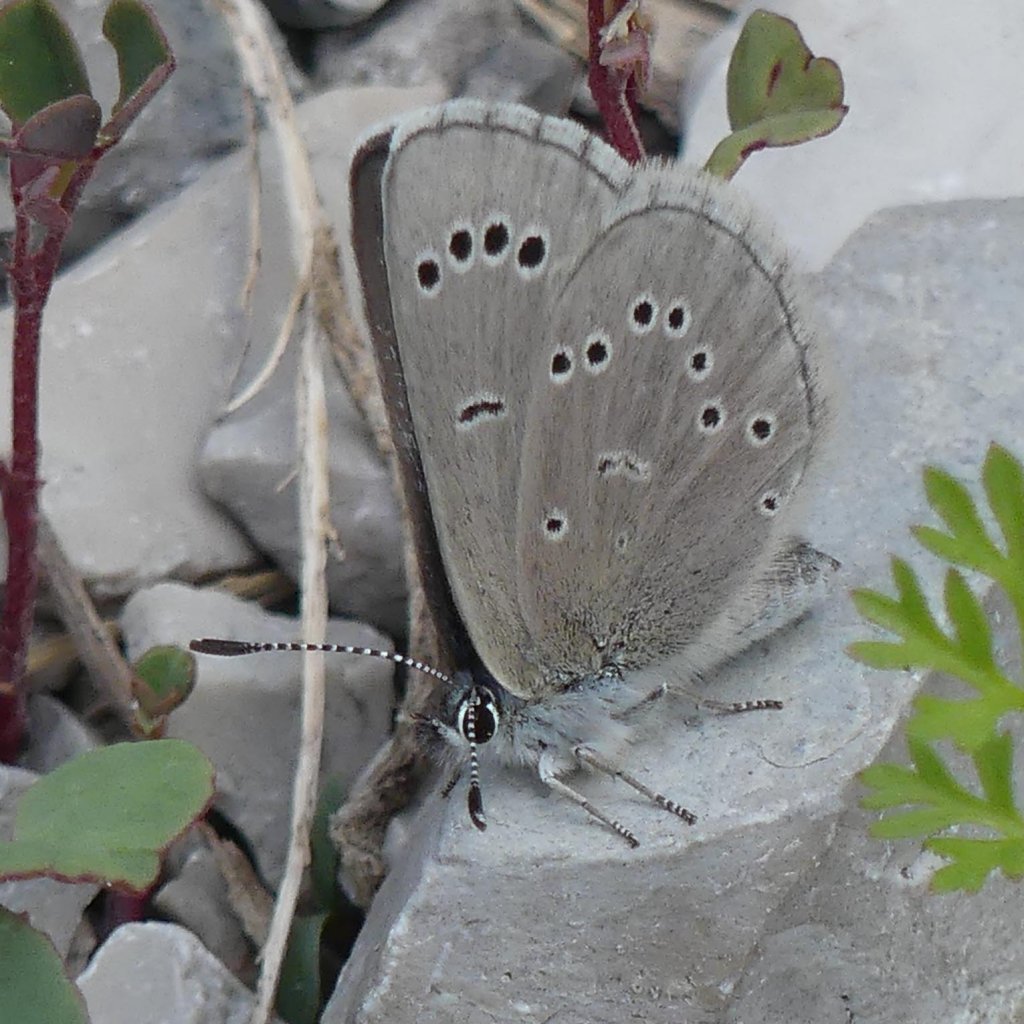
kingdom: Animalia
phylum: Arthropoda
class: Insecta
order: Lepidoptera
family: Lycaenidae
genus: Glaucopsyche
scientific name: Glaucopsyche lygdamus
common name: Silvery Blue
